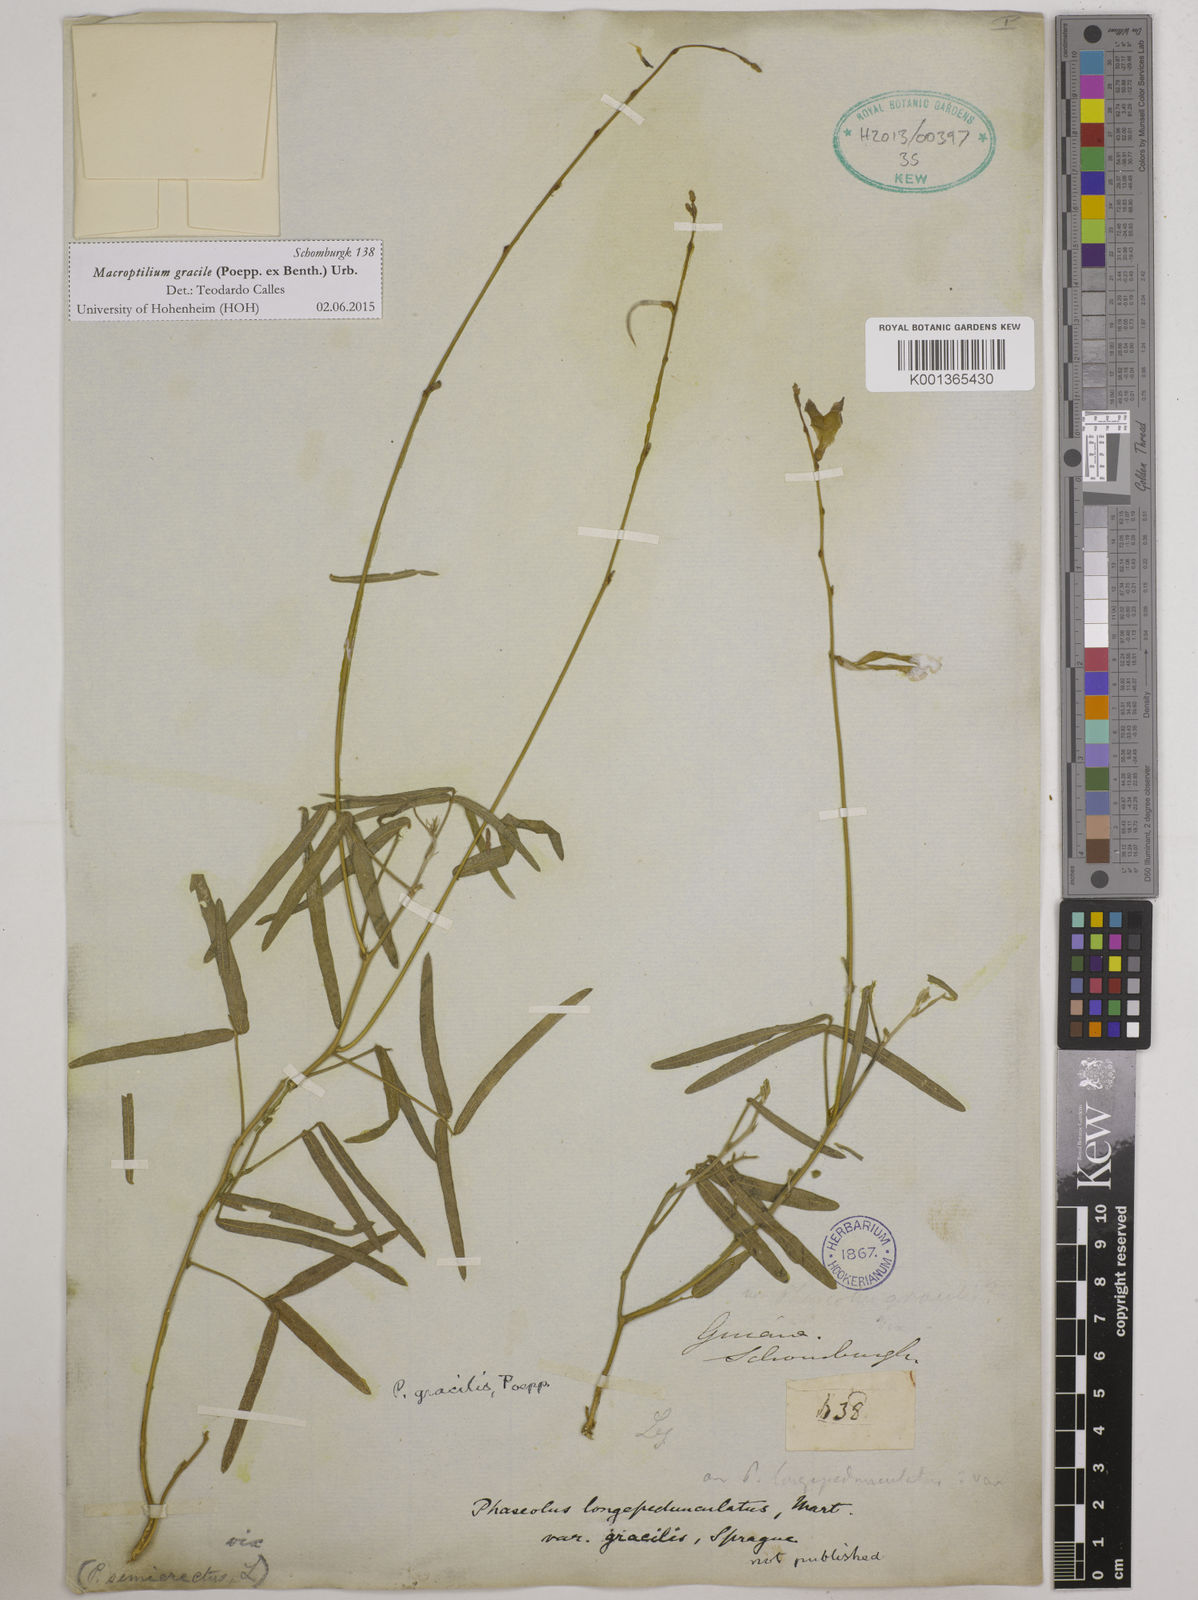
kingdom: Plantae
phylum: Tracheophyta
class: Magnoliopsida
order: Fabales
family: Fabaceae
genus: Macroptilium
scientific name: Macroptilium gracile
